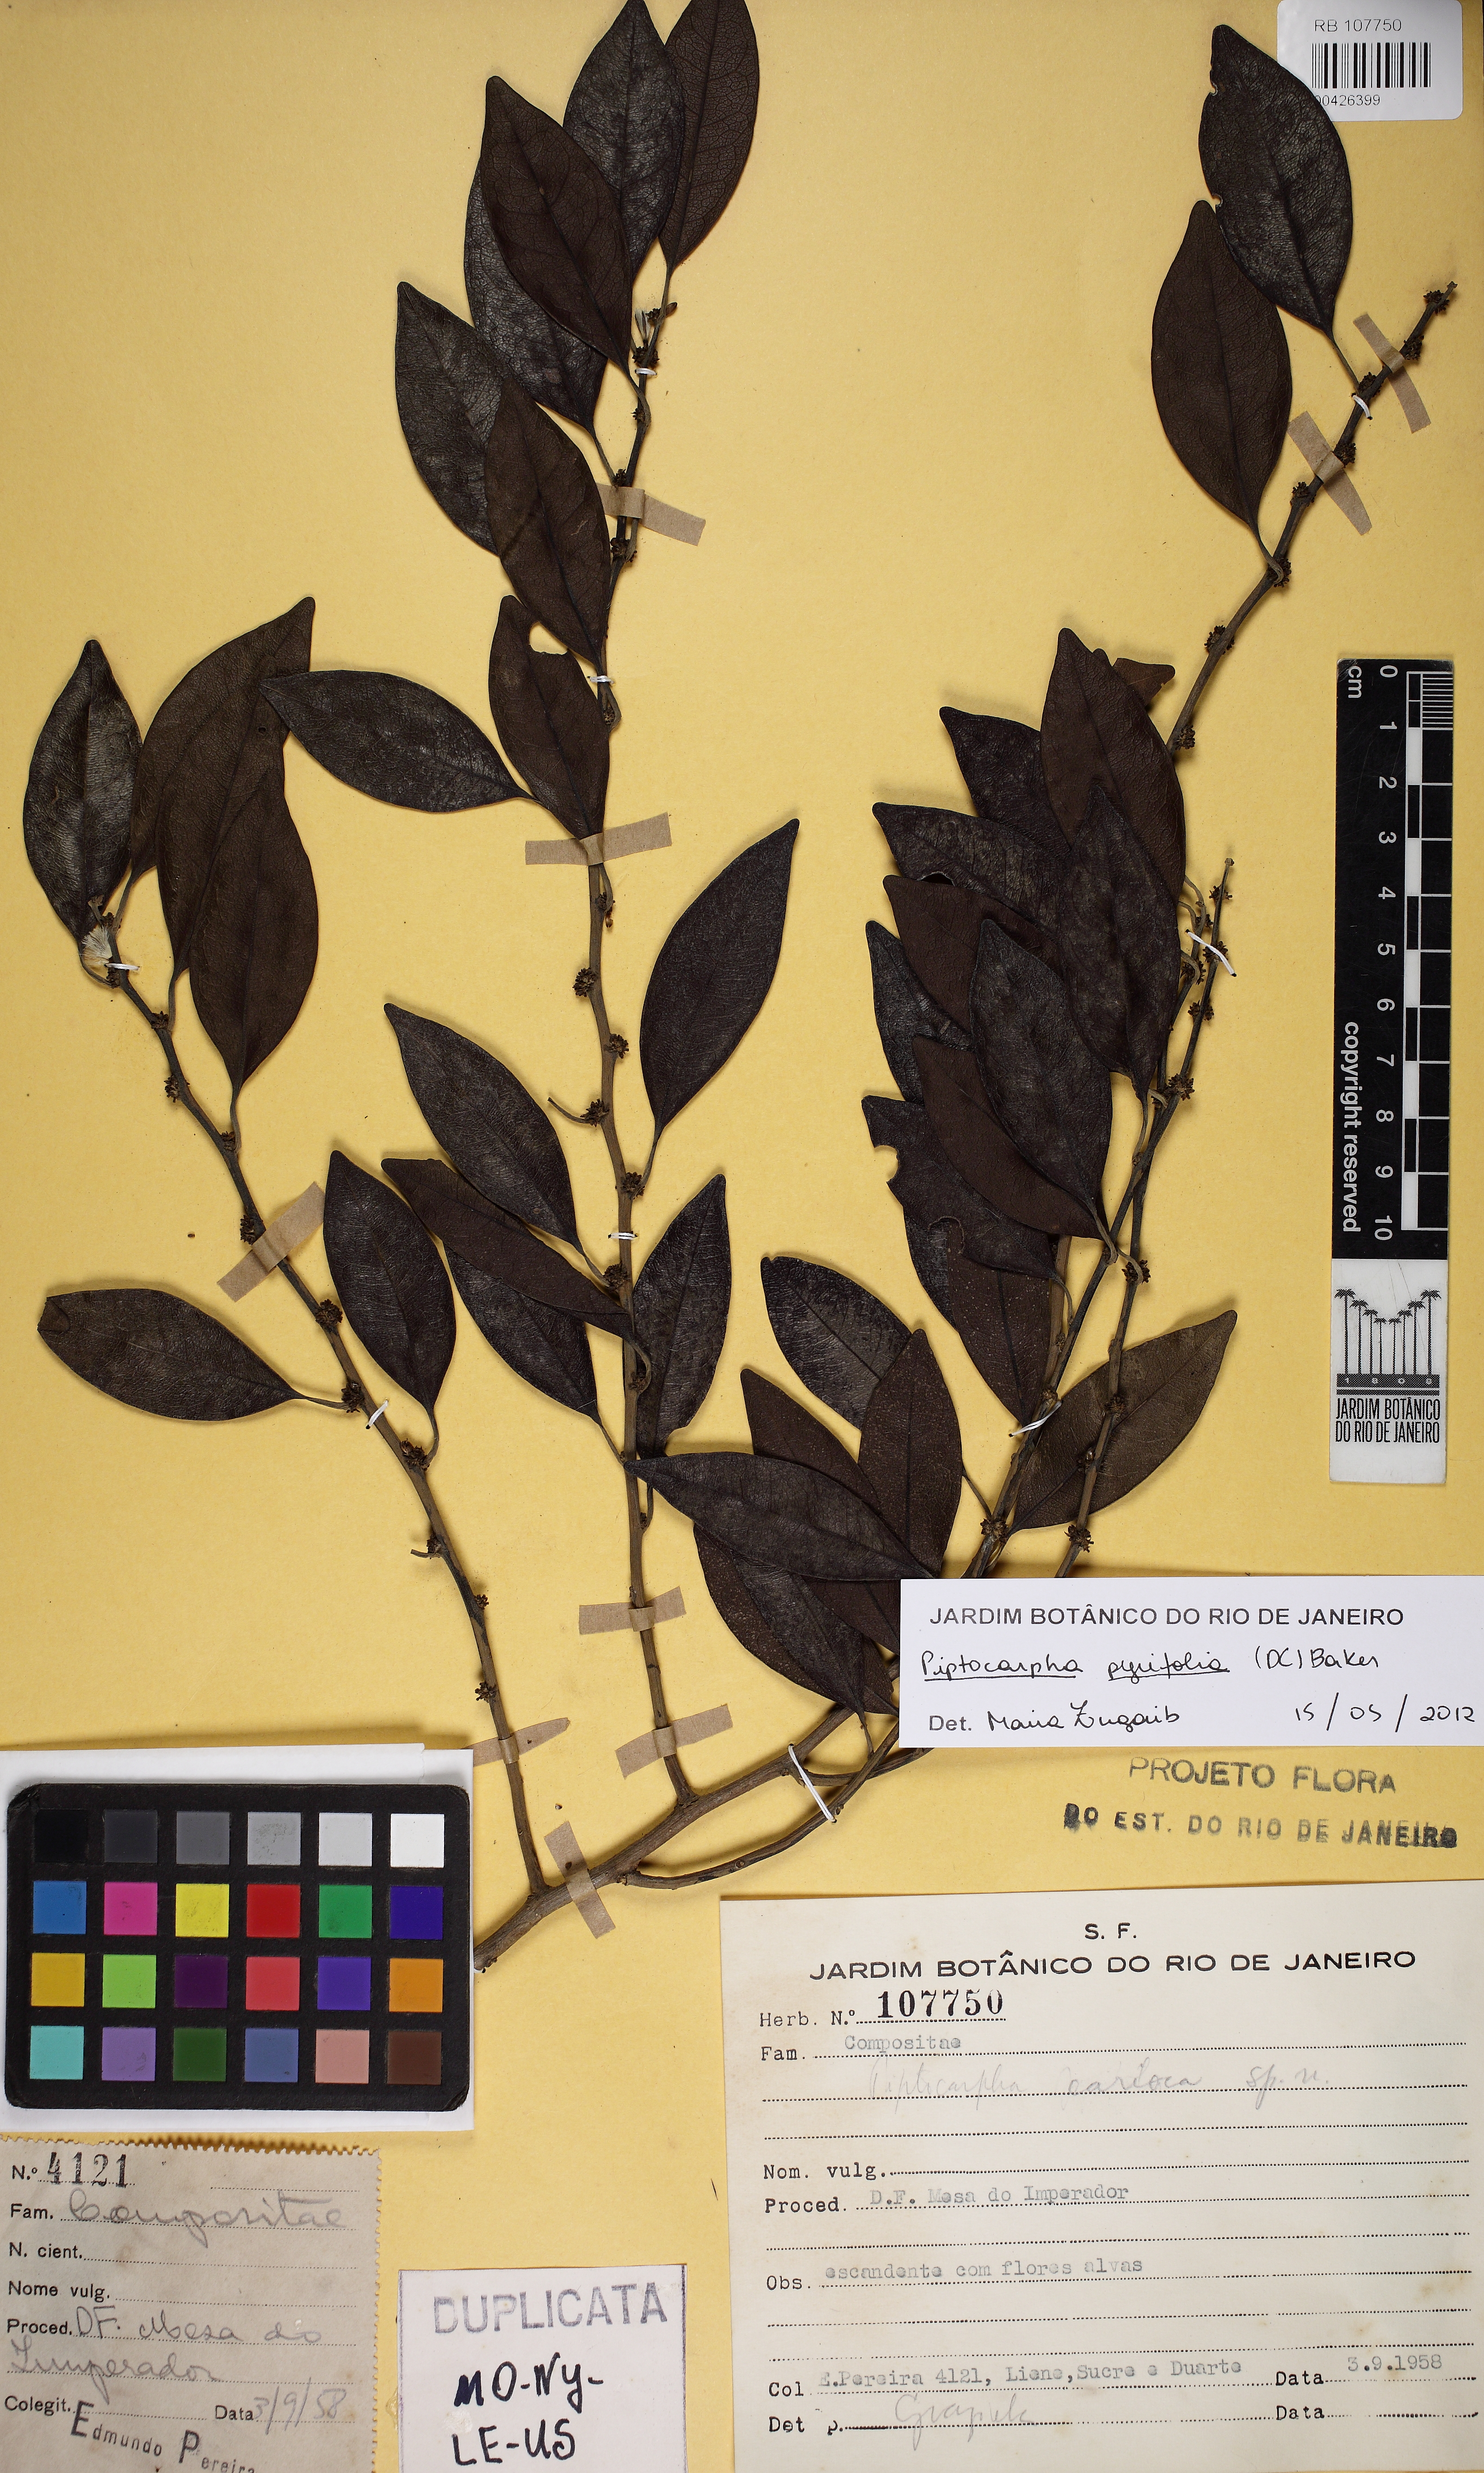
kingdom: Plantae
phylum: Tracheophyta
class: Magnoliopsida
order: Asterales
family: Asteraceae
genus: Piptocarpha
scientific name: Piptocarpha pyrifolia
